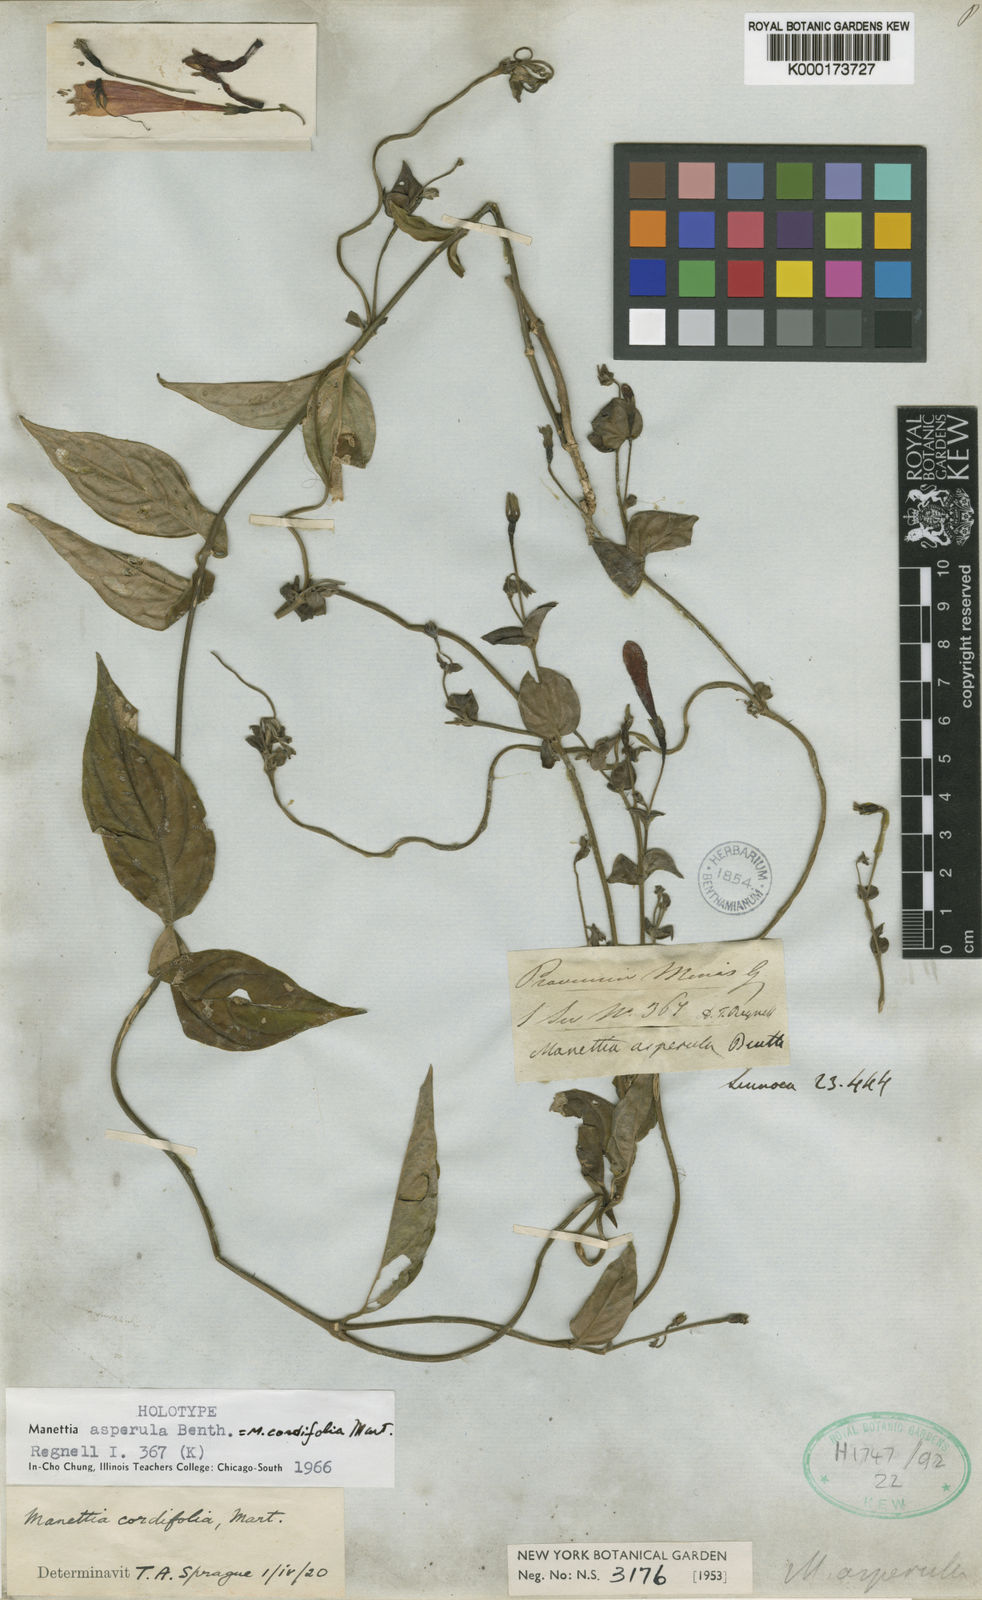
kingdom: Plantae
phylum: Tracheophyta
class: Magnoliopsida
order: Gentianales
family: Rubiaceae
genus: Manettia
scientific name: Manettia cordifolia
